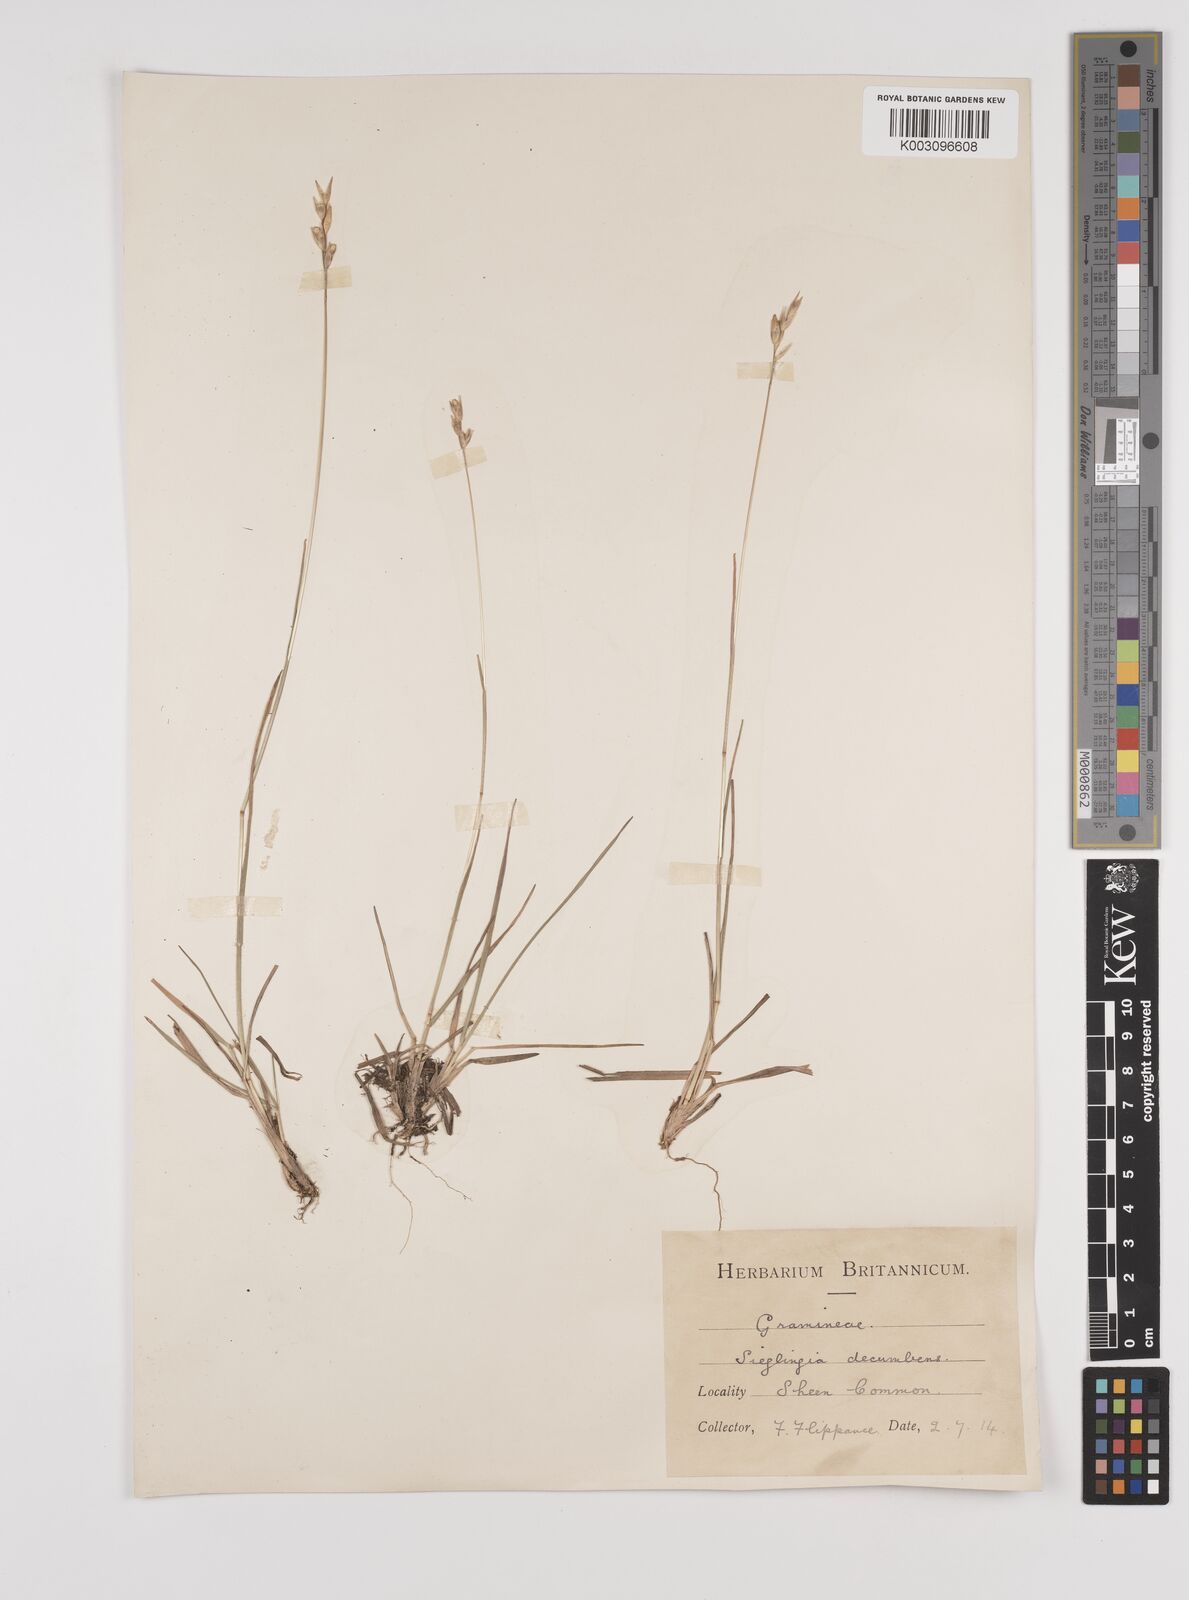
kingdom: Plantae
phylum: Tracheophyta
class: Liliopsida
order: Poales
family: Poaceae
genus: Danthonia
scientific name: Danthonia decumbens
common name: Common heathgrass
